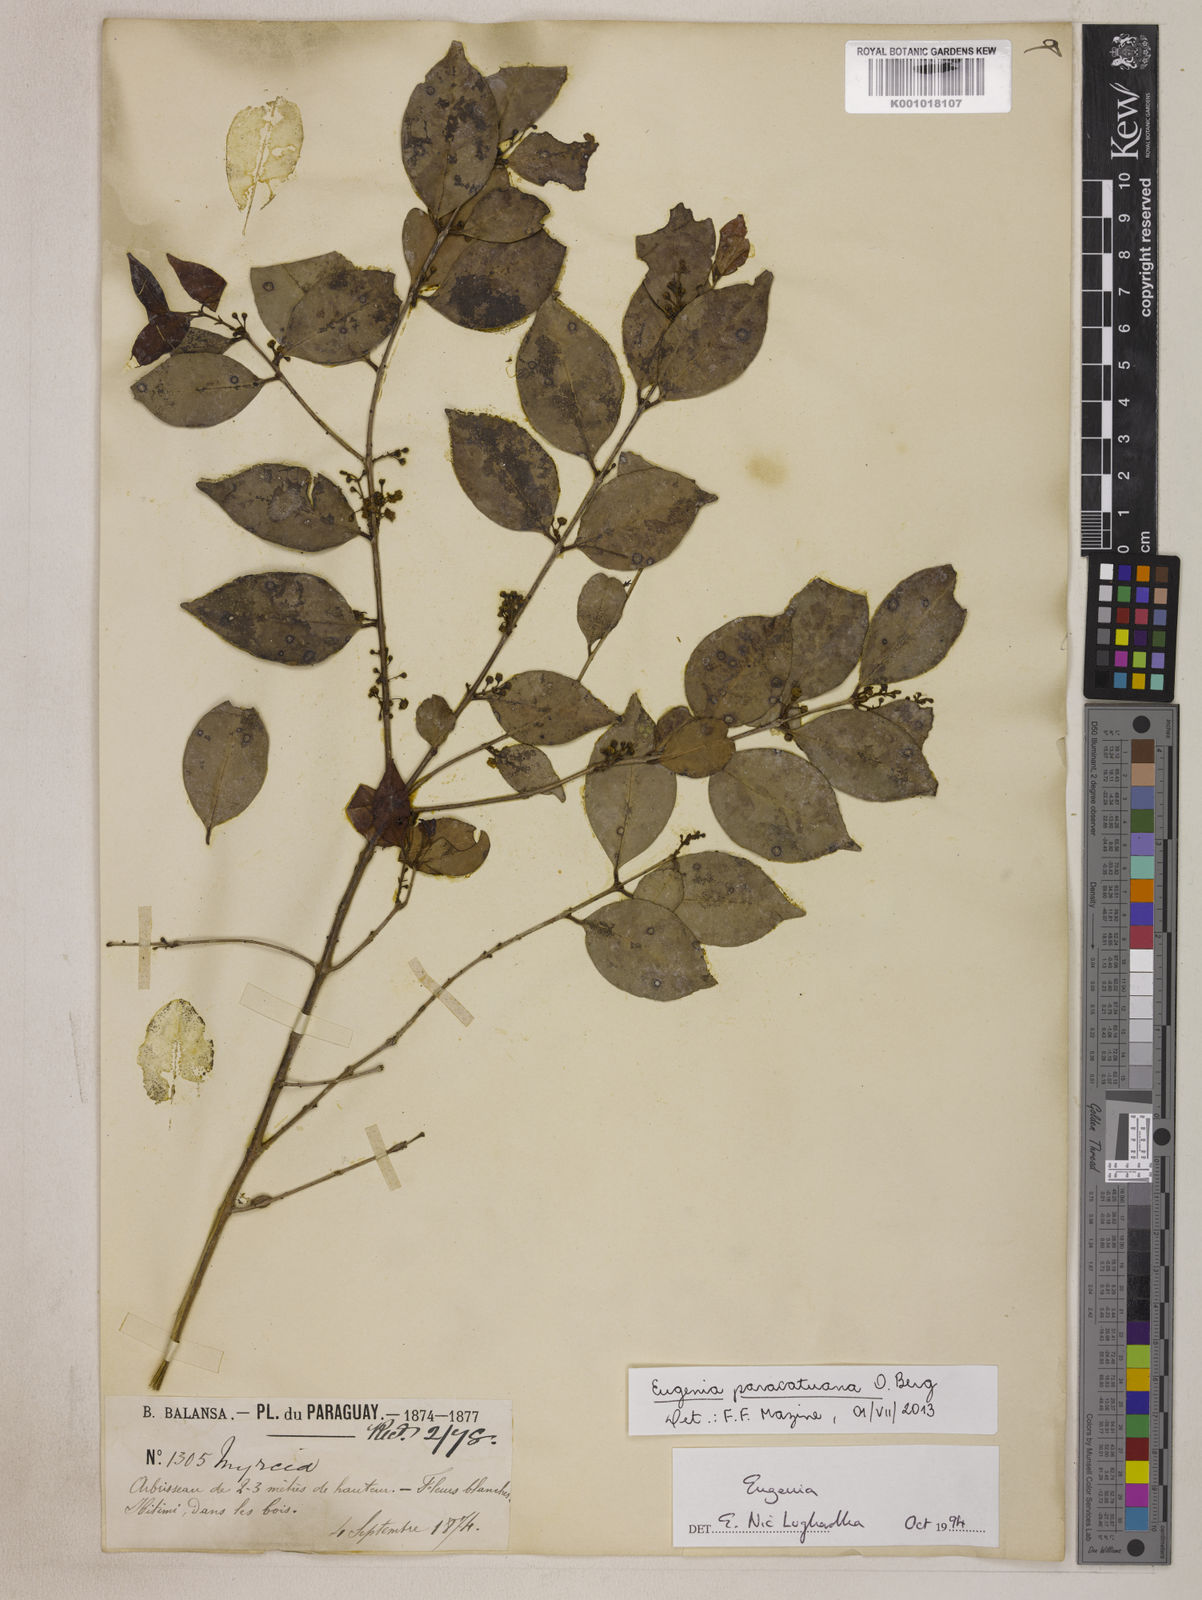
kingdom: Plantae
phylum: Tracheophyta
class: Magnoliopsida
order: Myrtales
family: Myrtaceae
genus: Eugenia
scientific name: Eugenia moraviana
